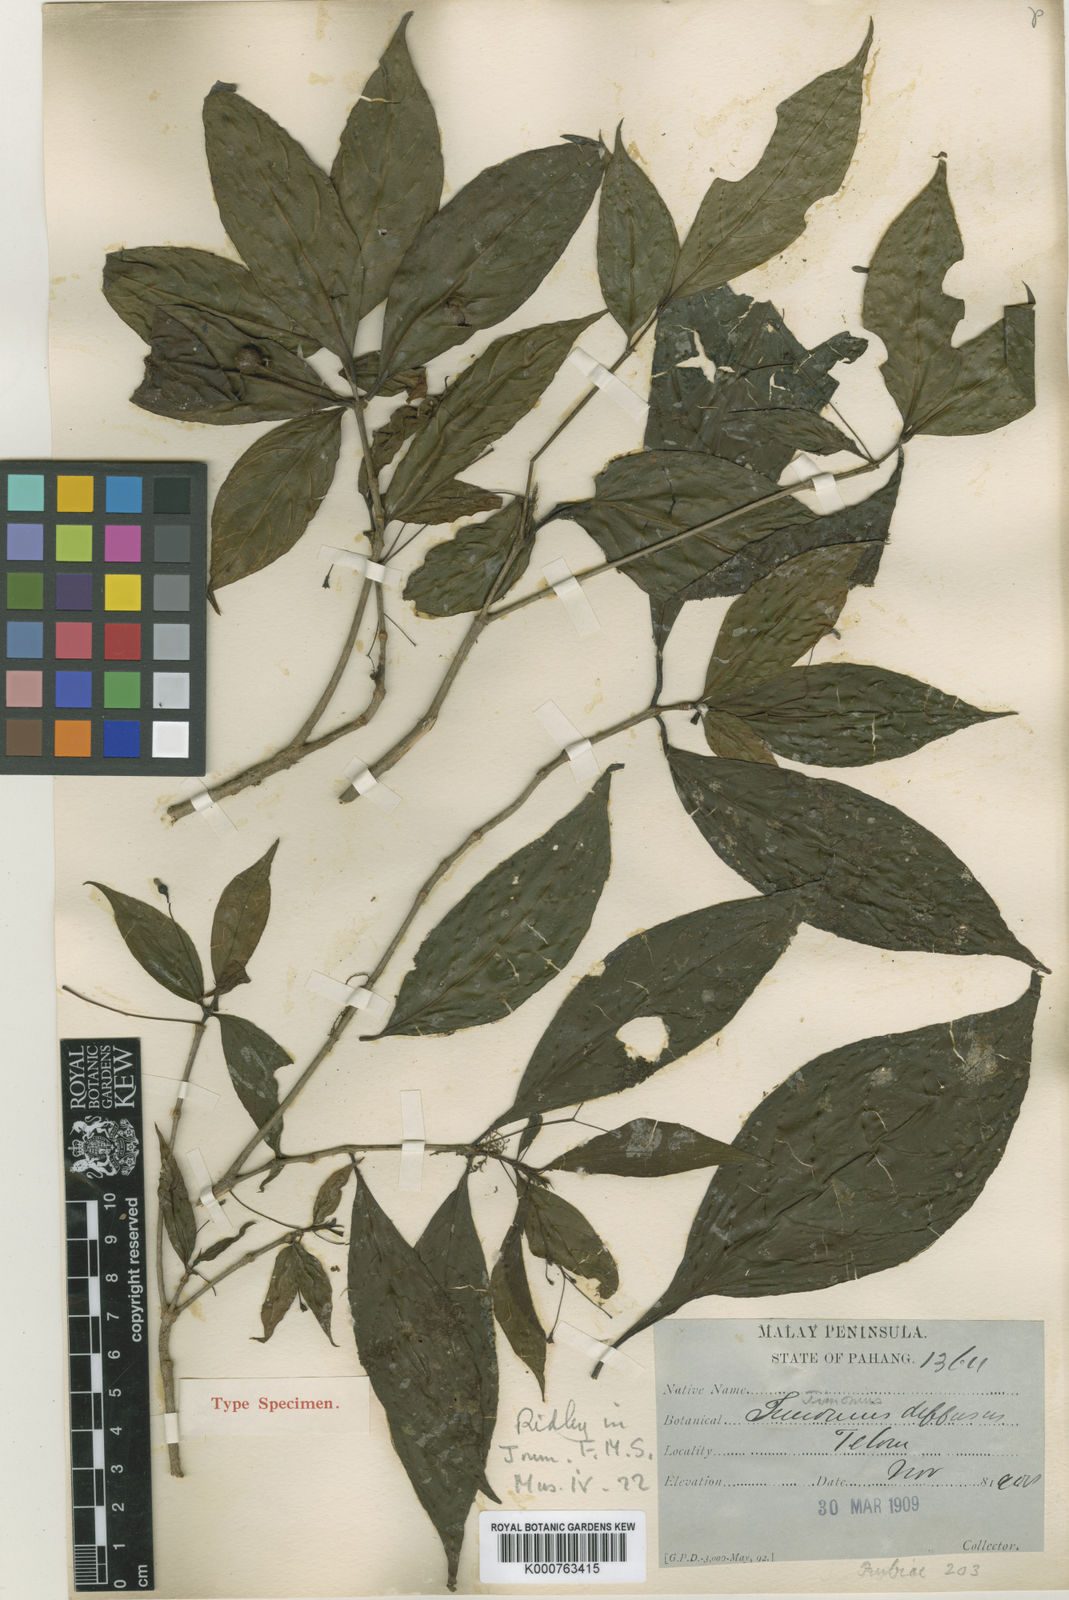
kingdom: Plantae
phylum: Tracheophyta
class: Magnoliopsida
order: Gentianales
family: Rubiaceae
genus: Timonius
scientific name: Timonius diffusus
